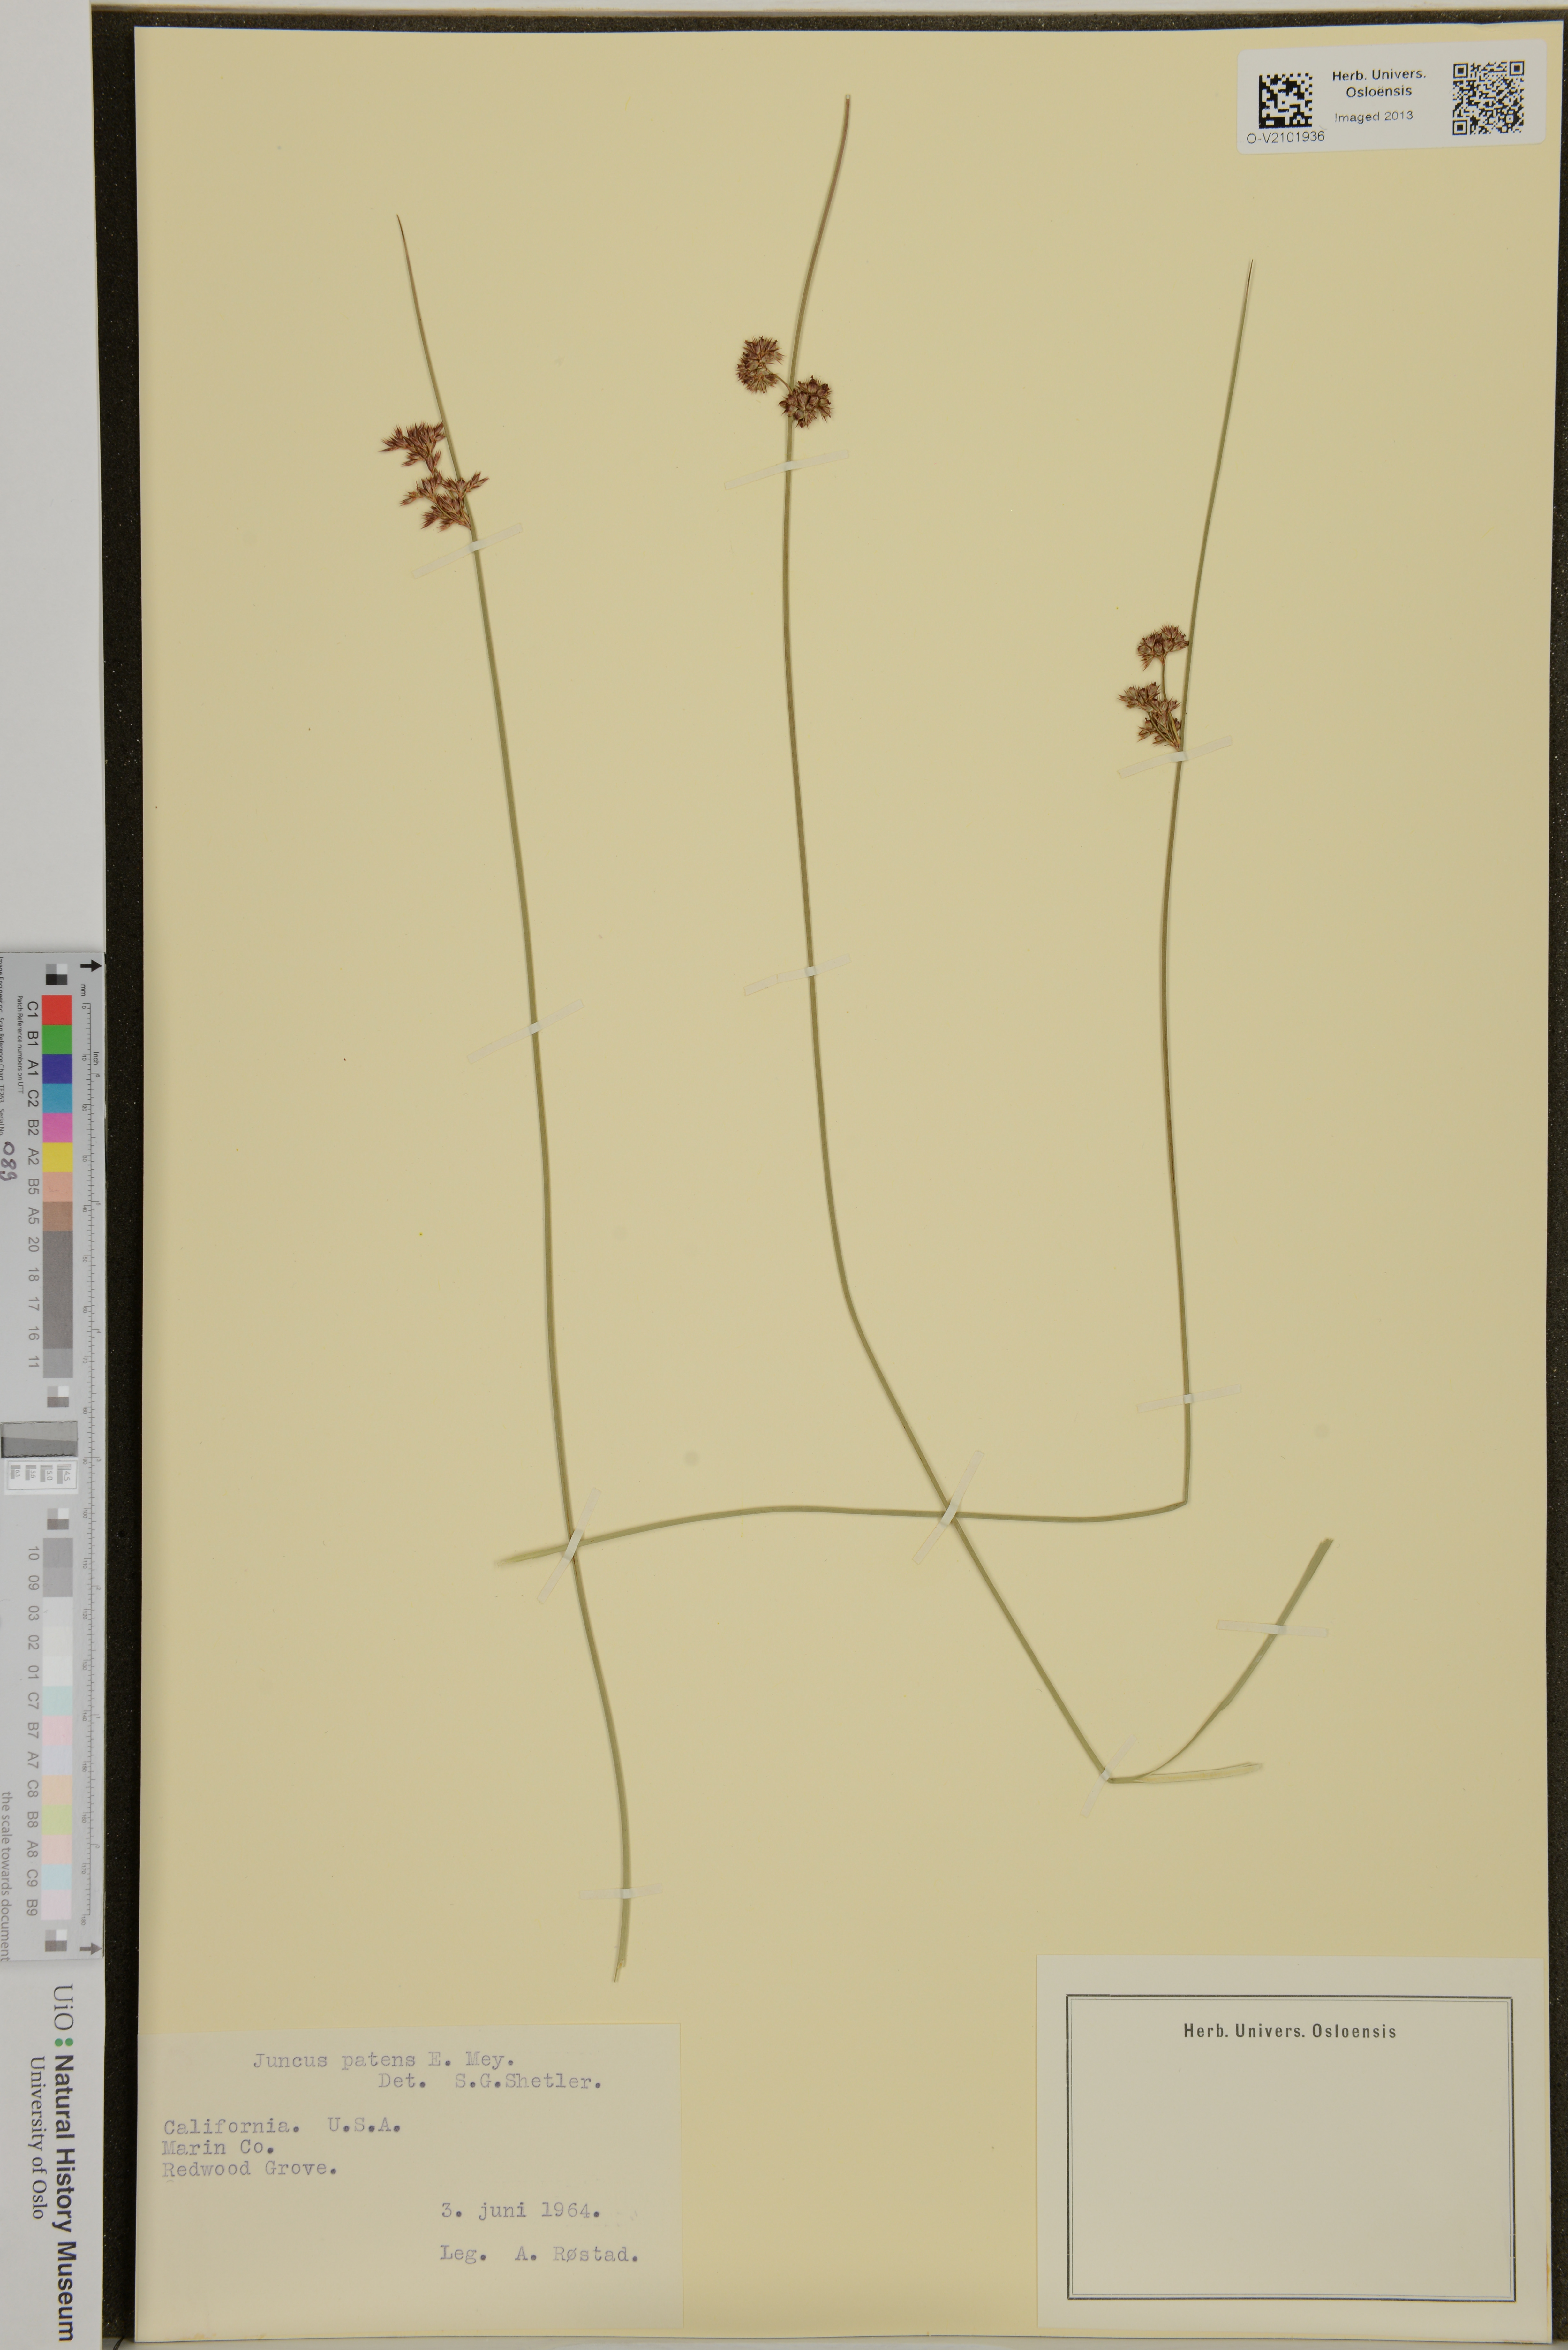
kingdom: Plantae
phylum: Tracheophyta
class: Liliopsida
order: Poales
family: Juncaceae
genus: Juncus
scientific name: Juncus patens
